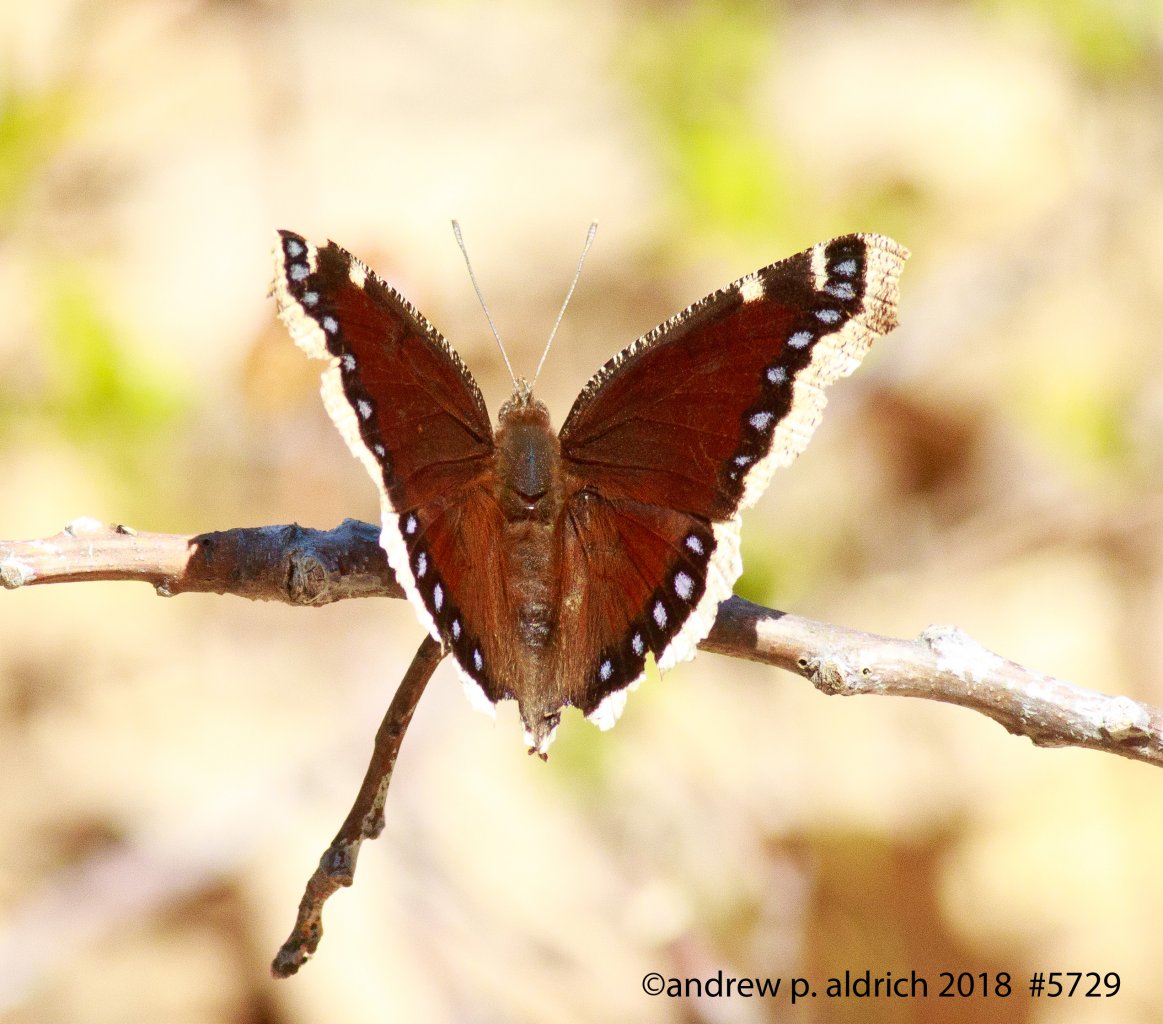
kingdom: Animalia
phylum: Arthropoda
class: Insecta
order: Lepidoptera
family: Nymphalidae
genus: Nymphalis
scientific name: Nymphalis antiopa
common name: Mourning Cloak
